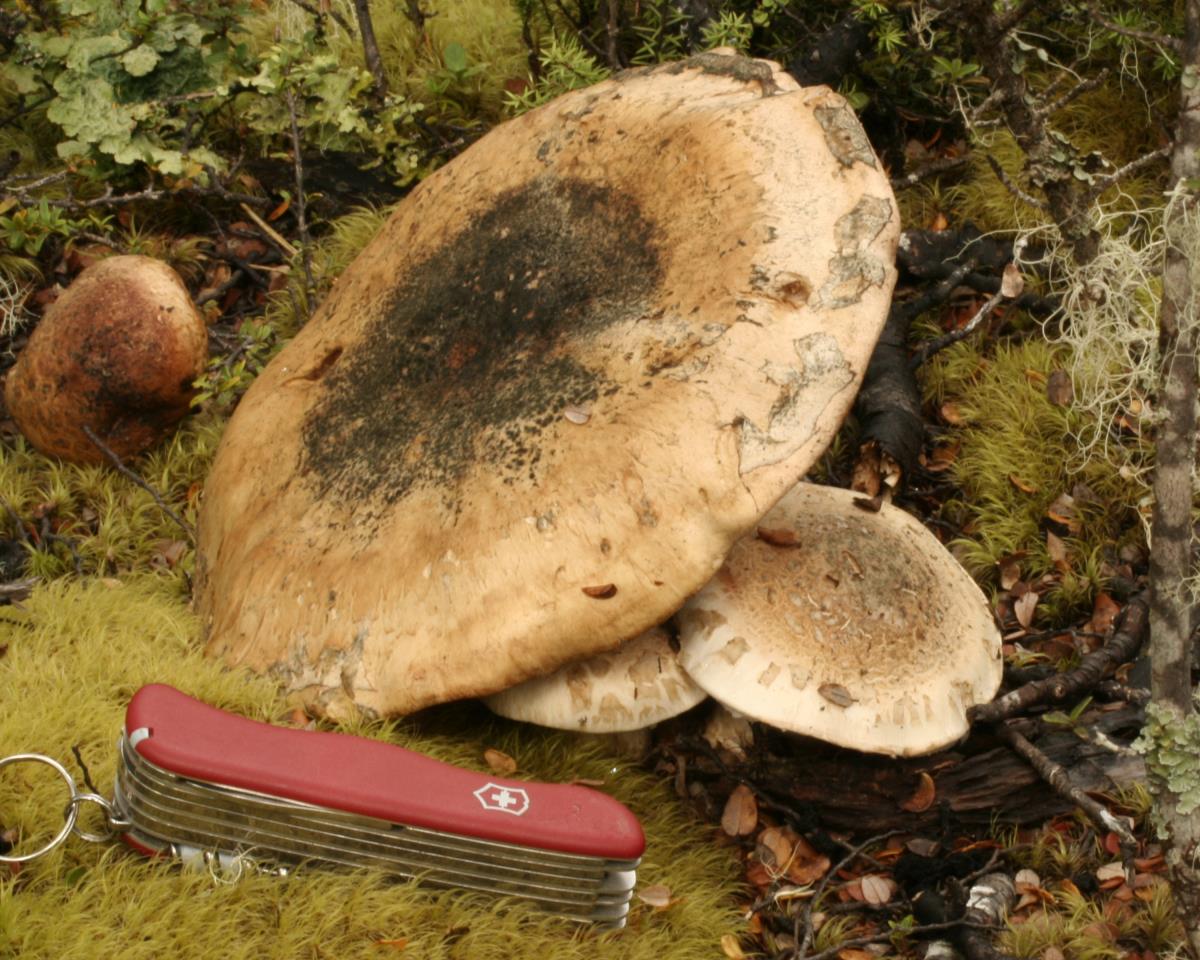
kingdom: Fungi
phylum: Basidiomycota
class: Agaricomycetes
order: Agaricales
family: Hymenogastraceae
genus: Hebeloma
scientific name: Hebeloma victoriense
